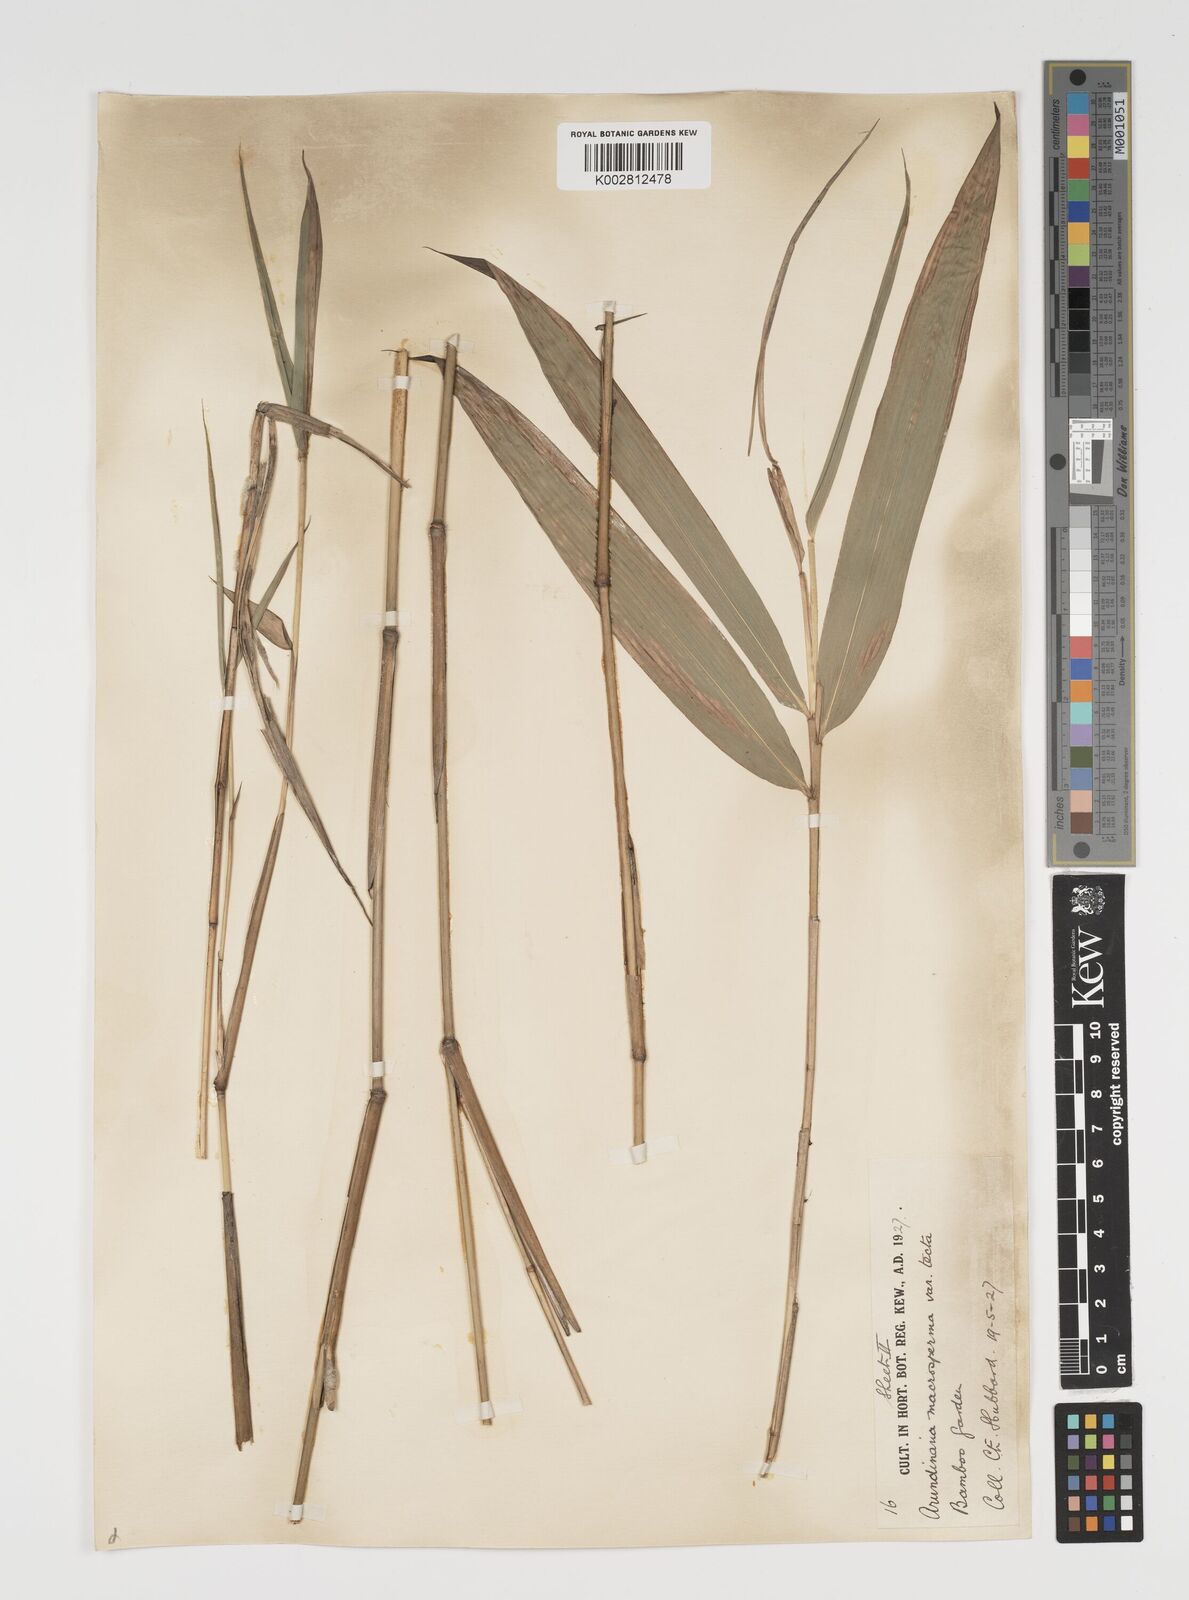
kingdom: Plantae
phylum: Tracheophyta
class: Liliopsida
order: Poales
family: Poaceae
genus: Arundinaria
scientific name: Arundinaria tecta
